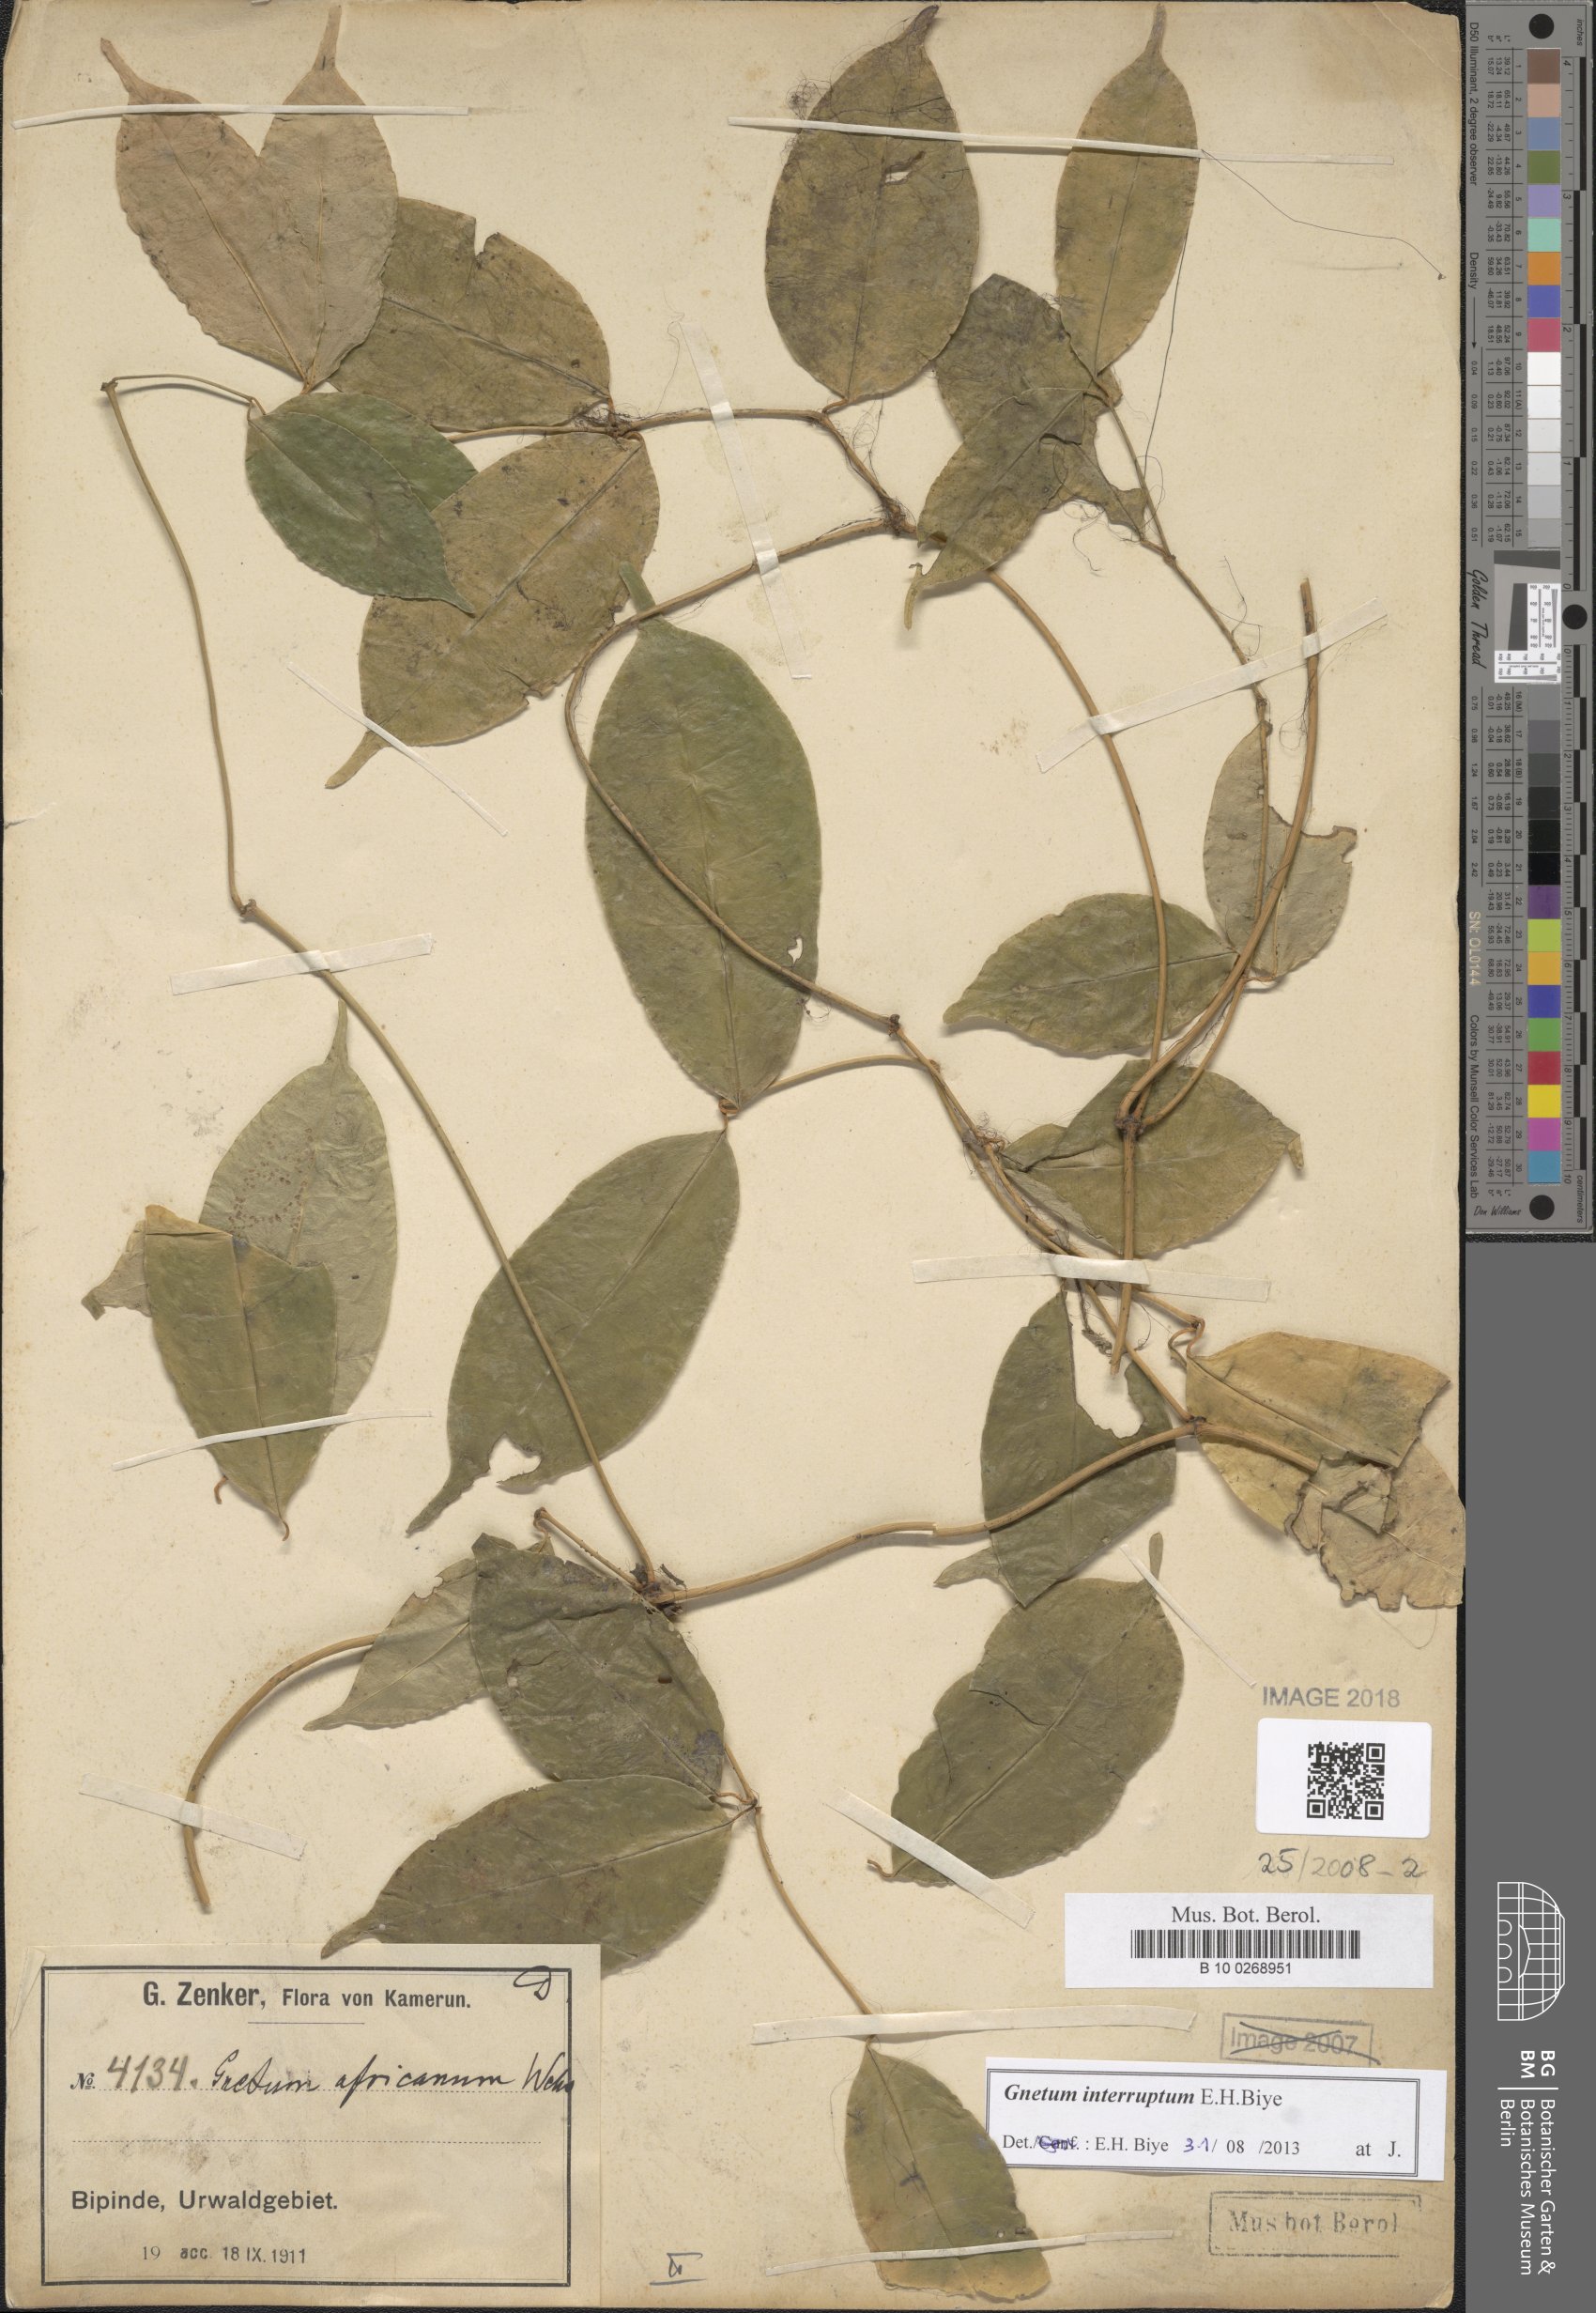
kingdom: Plantae
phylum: Tracheophyta
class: Gnetopsida
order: Gnetales
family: Gnetaceae
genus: Gnetum
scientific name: Gnetum interruptum
